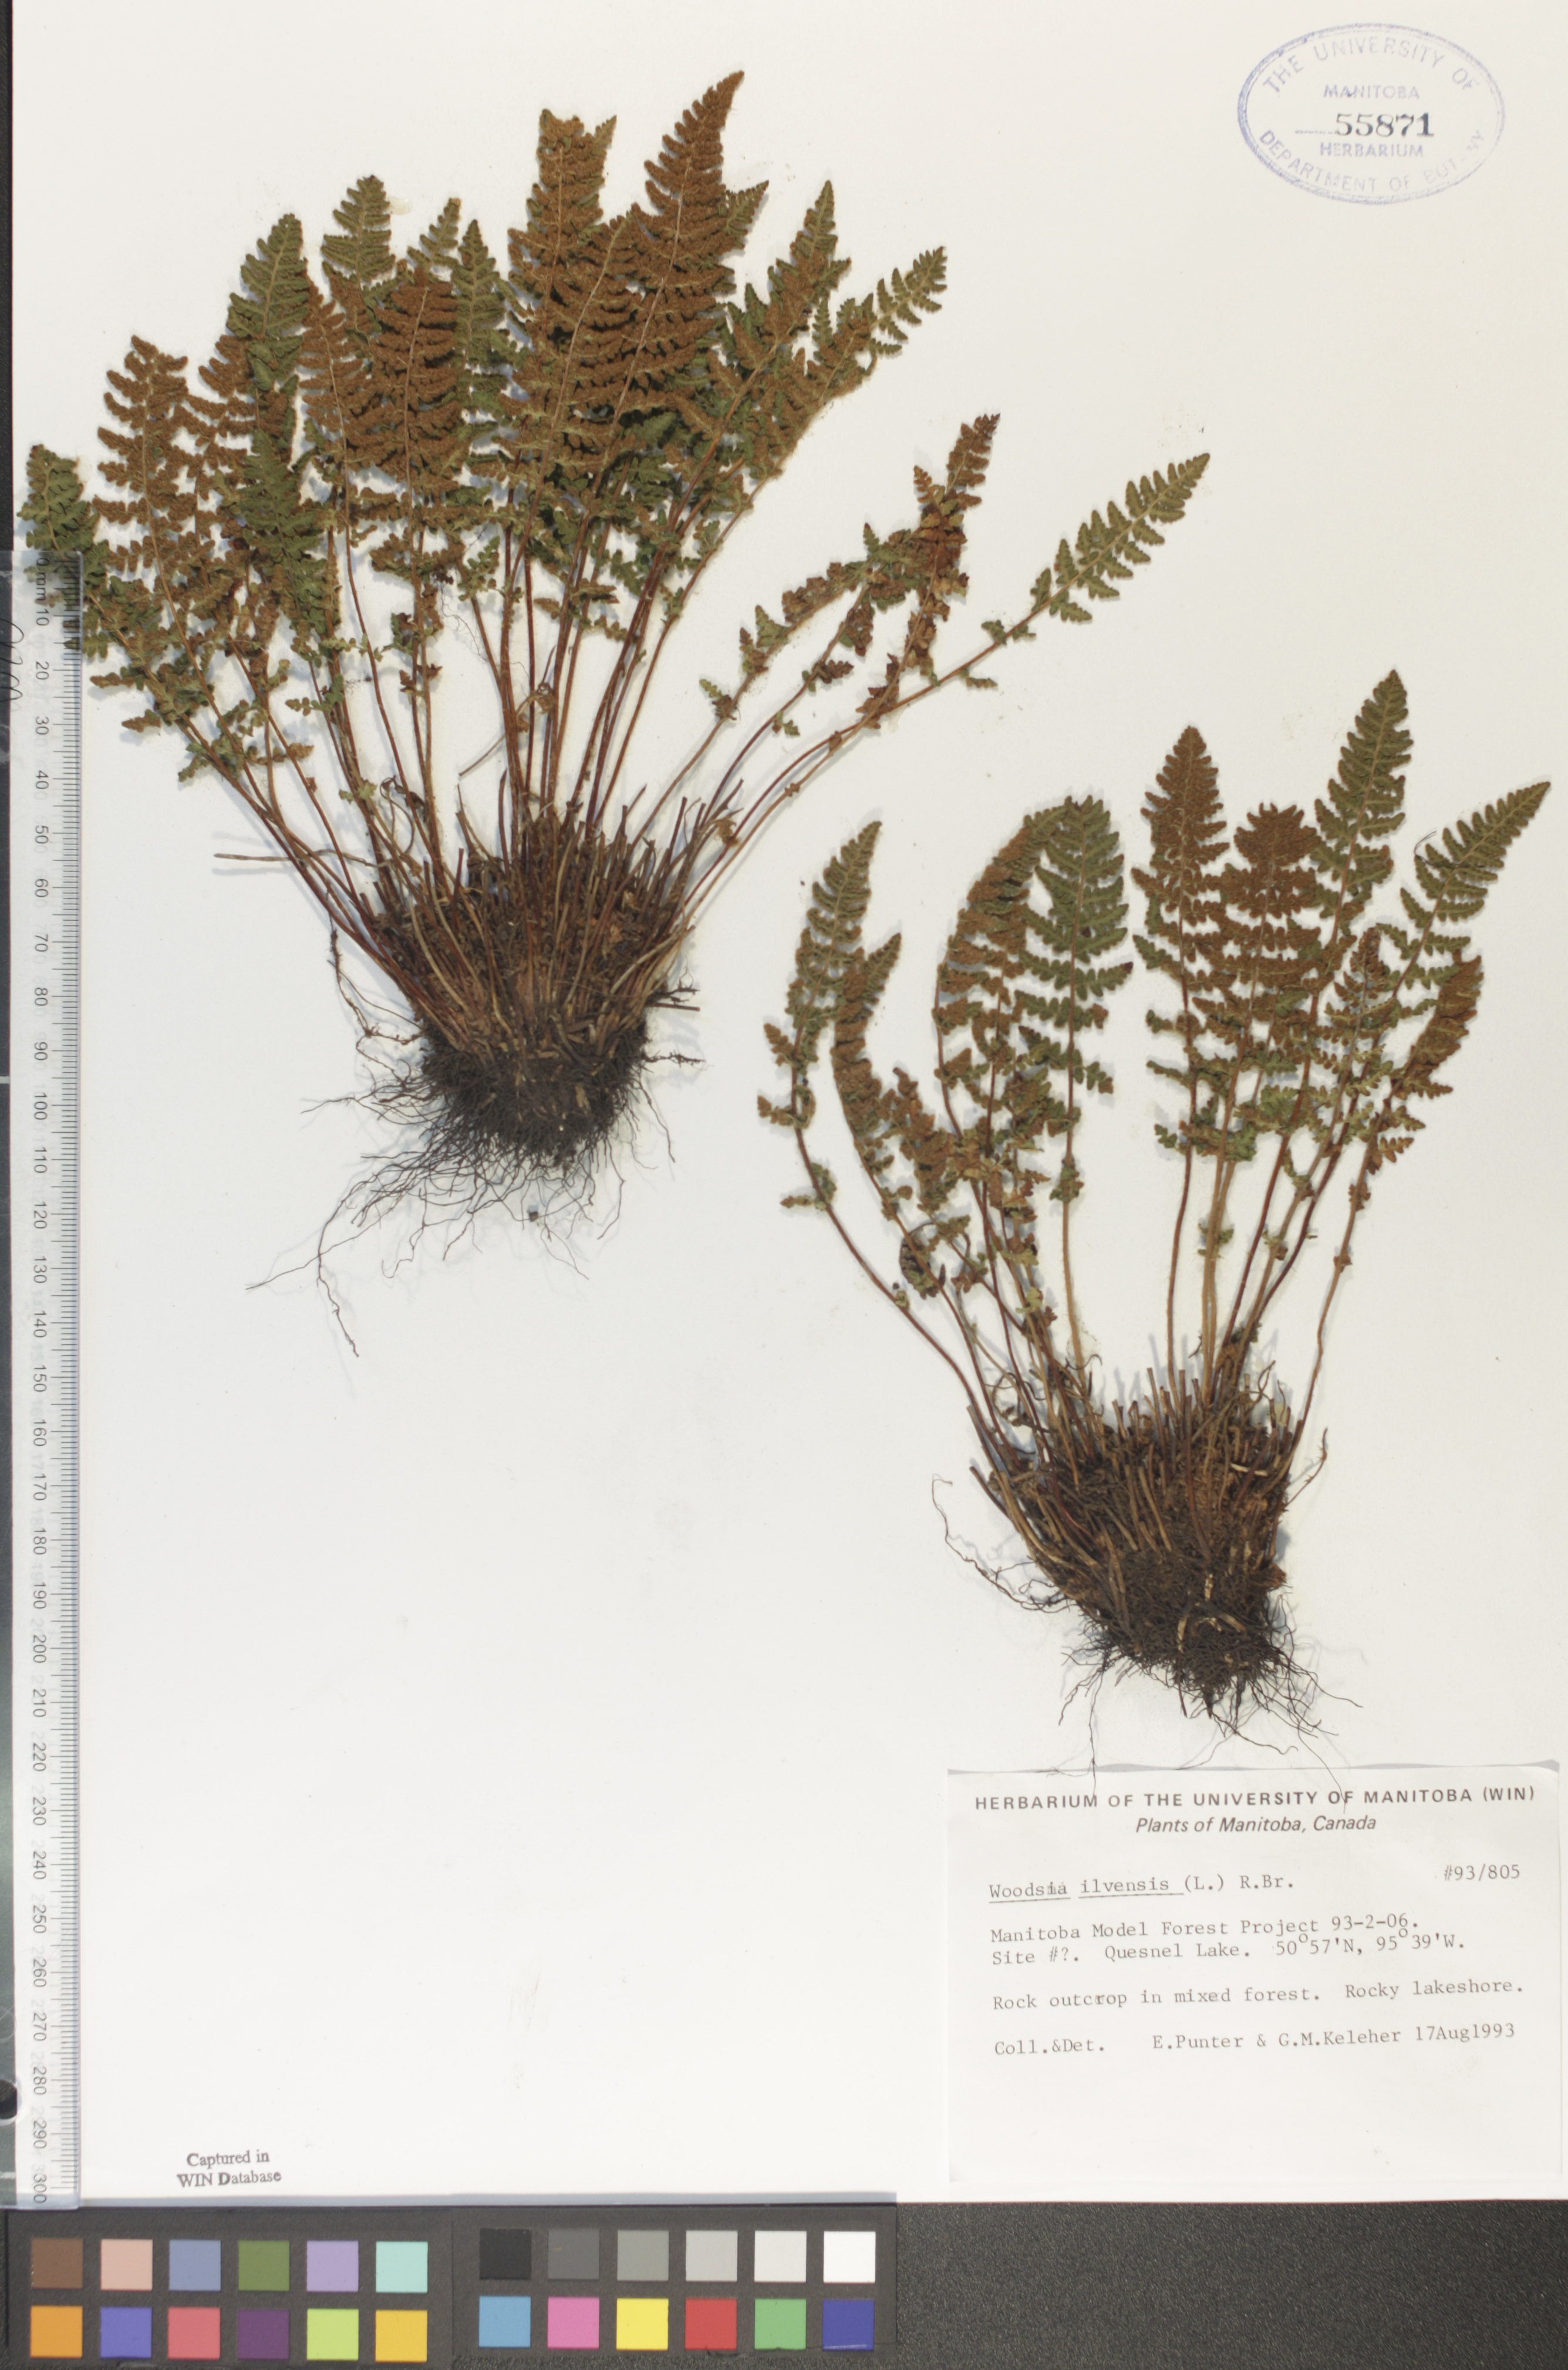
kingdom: Plantae
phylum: Tracheophyta
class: Polypodiopsida
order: Polypodiales
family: Woodsiaceae
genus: Woodsia
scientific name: Woodsia ilvensis
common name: Fragrant woodsia
